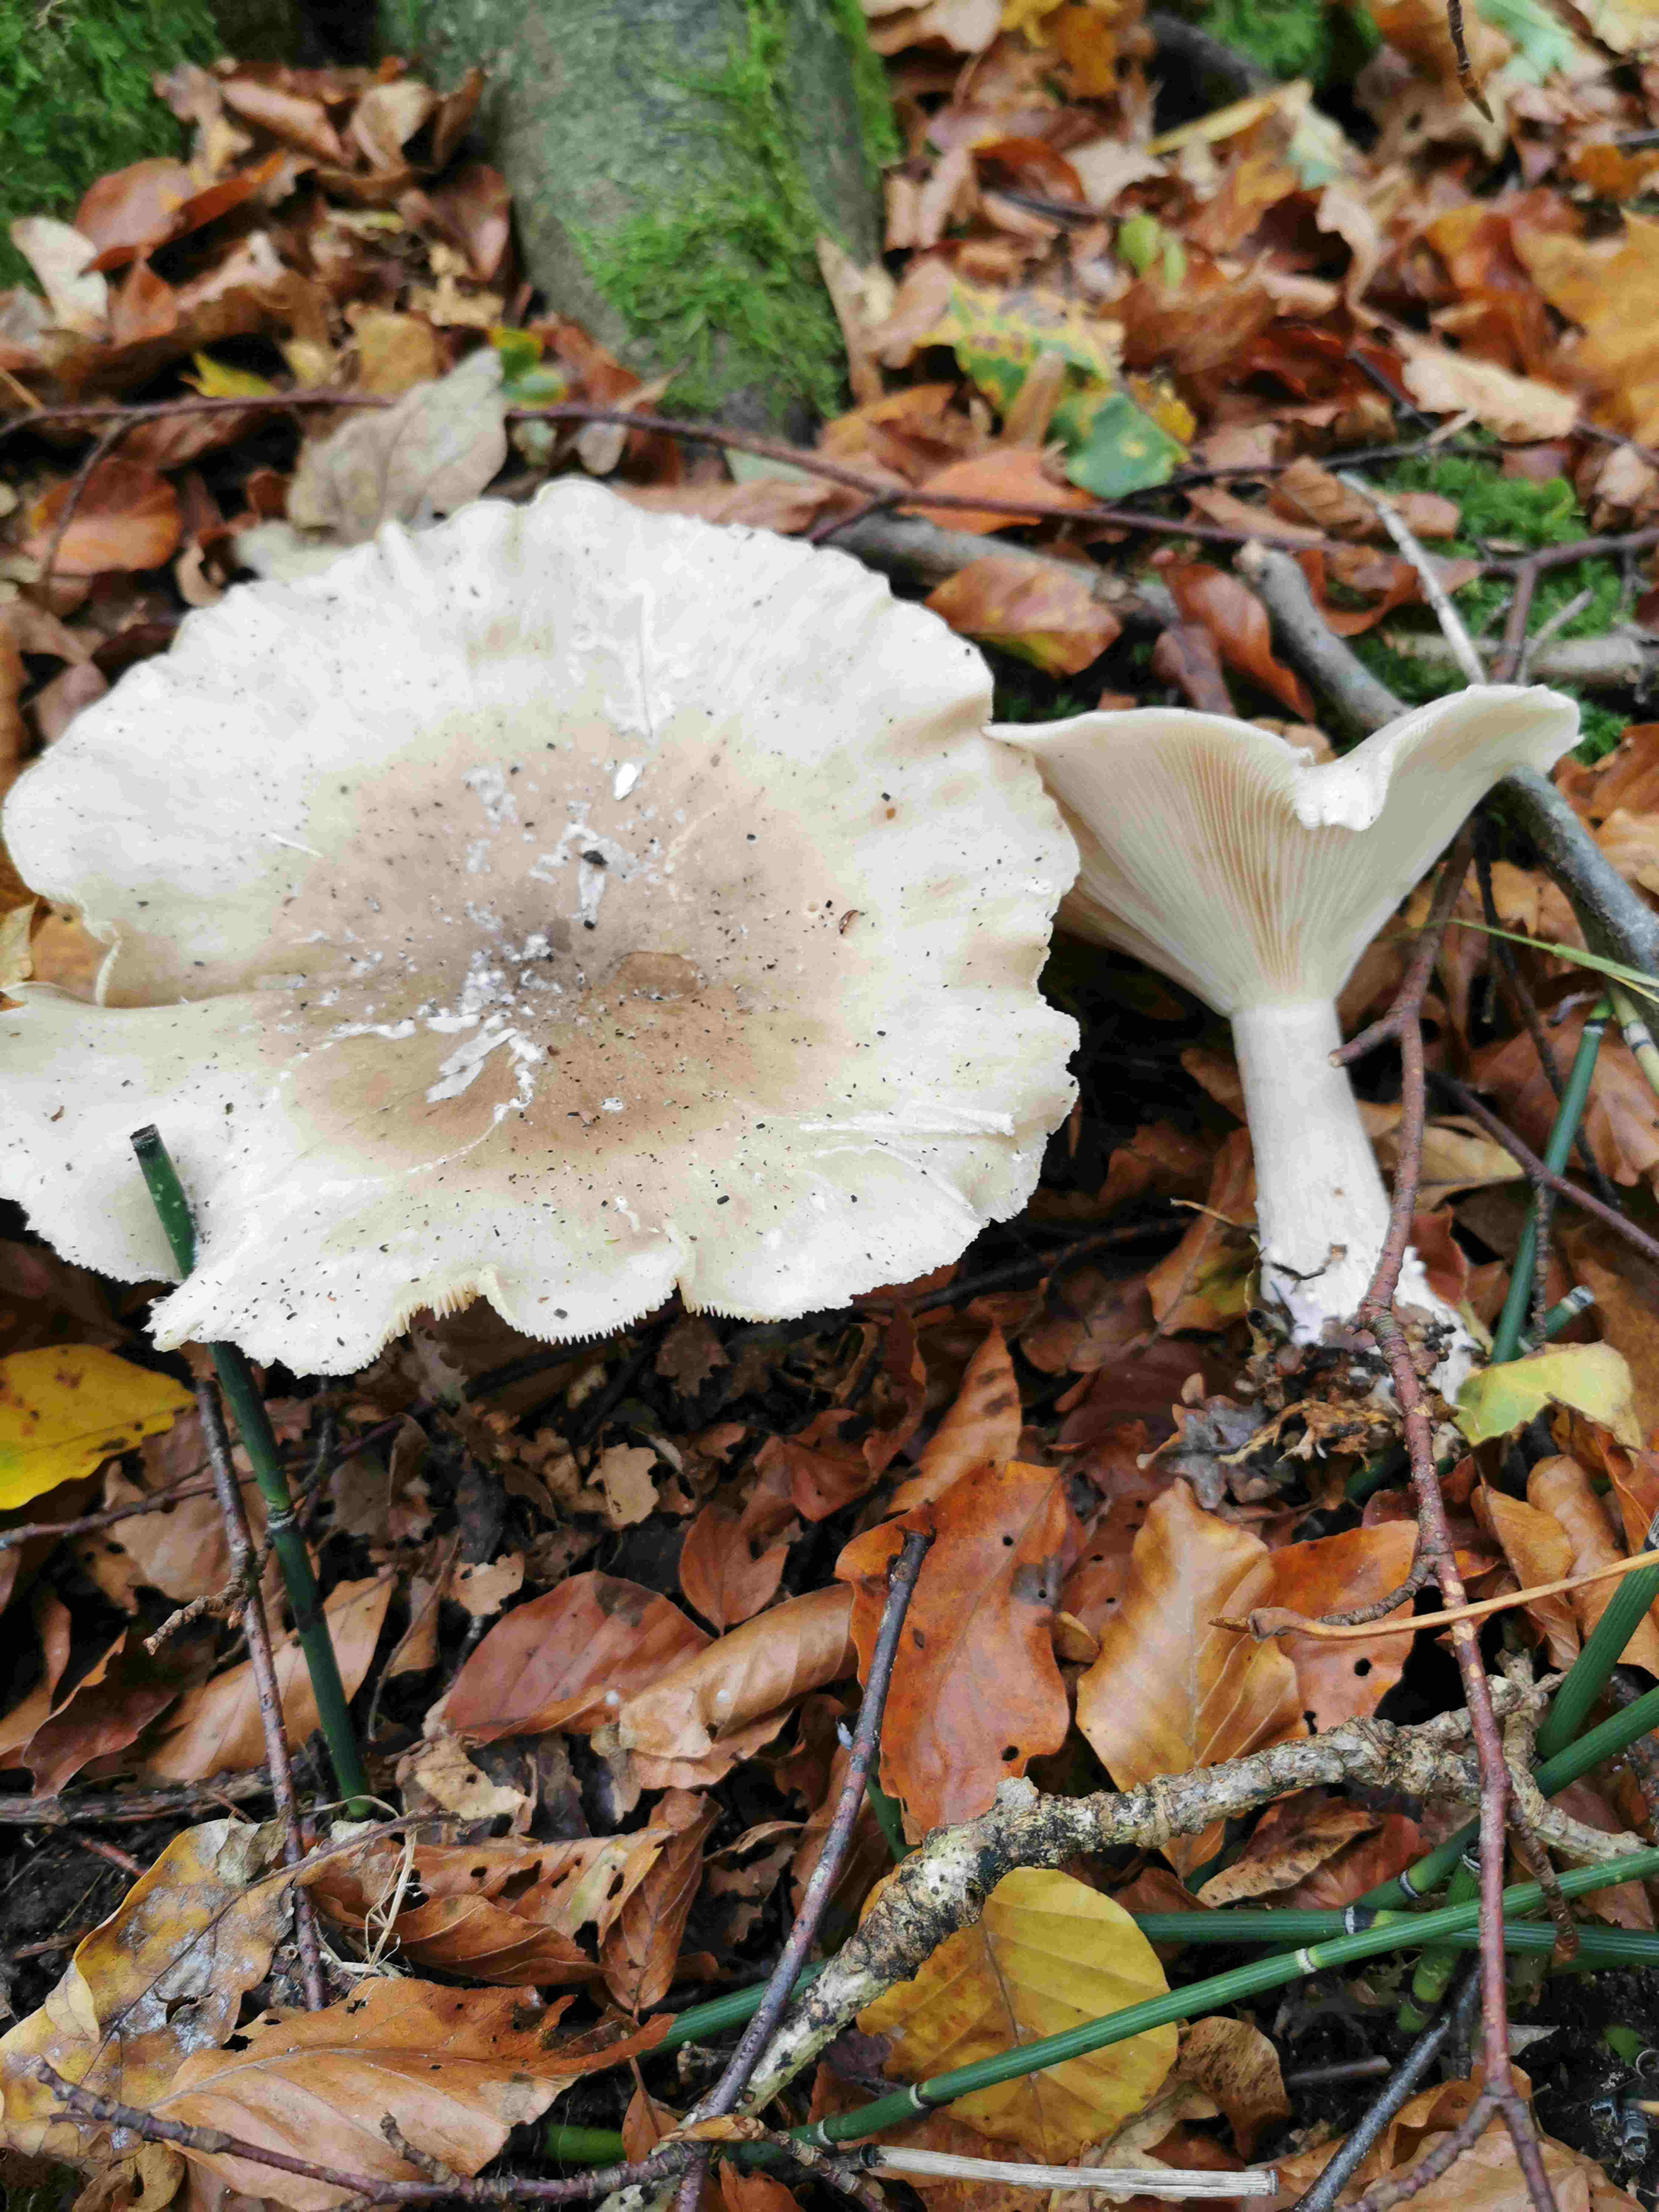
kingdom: Fungi
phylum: Basidiomycota
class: Agaricomycetes
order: Agaricales
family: Tricholomataceae
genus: Clitocybe
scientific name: Clitocybe nebularis
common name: tåge-tragthat
